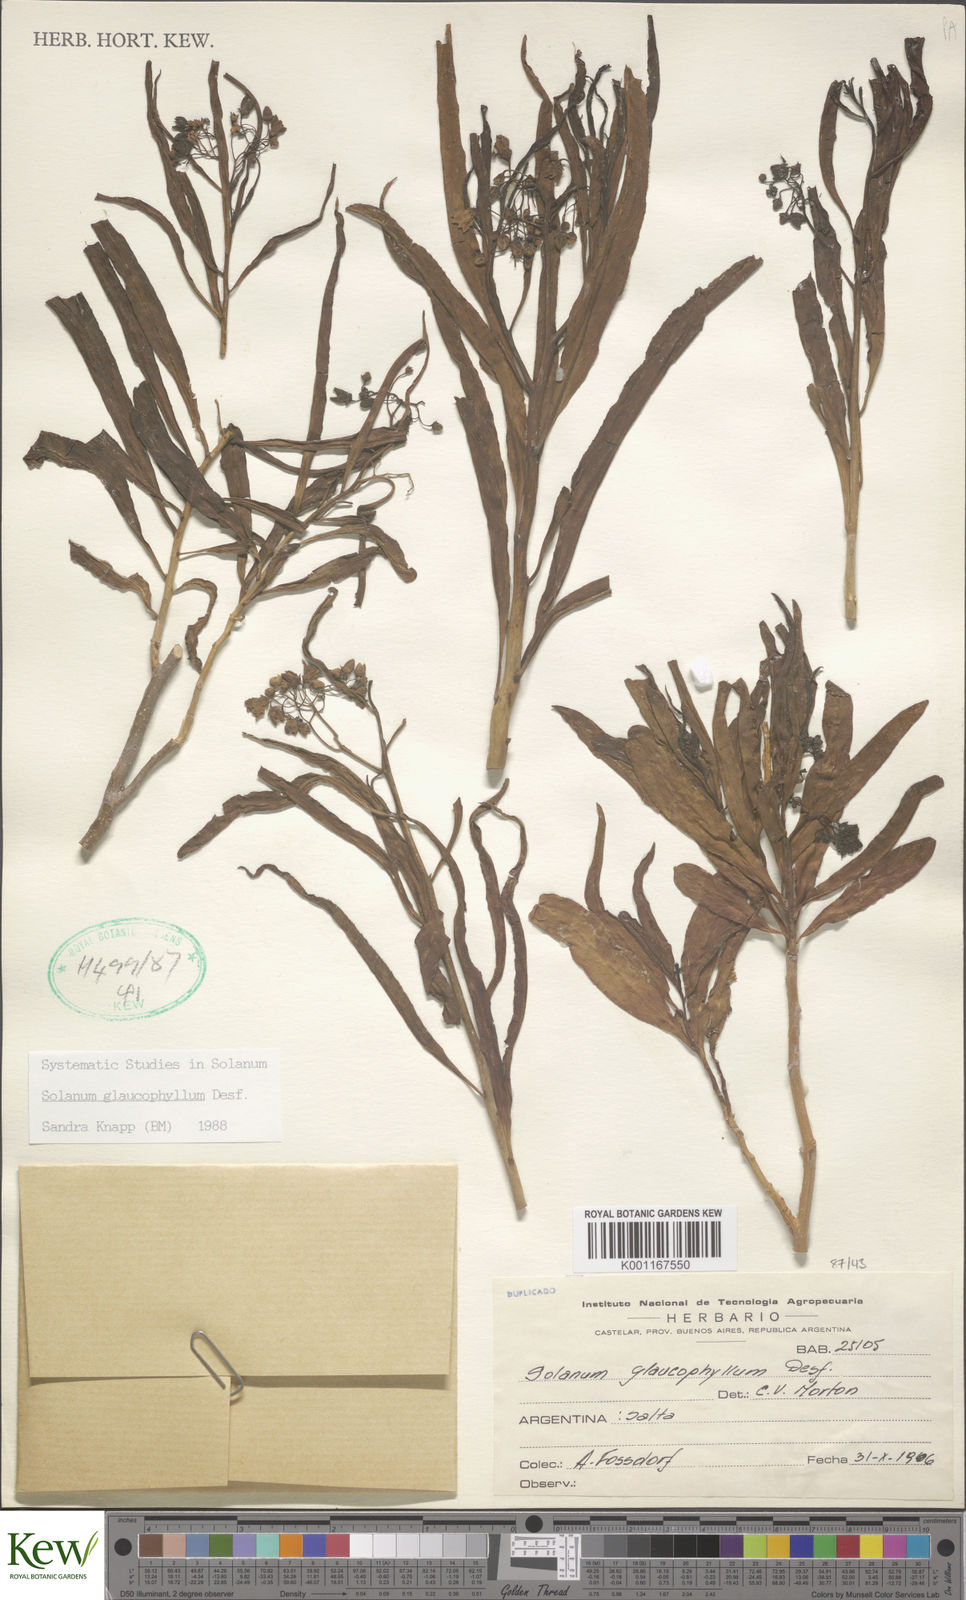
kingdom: Plantae
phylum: Tracheophyta
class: Magnoliopsida
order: Solanales
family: Solanaceae
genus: Solanum
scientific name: Solanum glaucophyllum
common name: Waxyleaf nightshade
